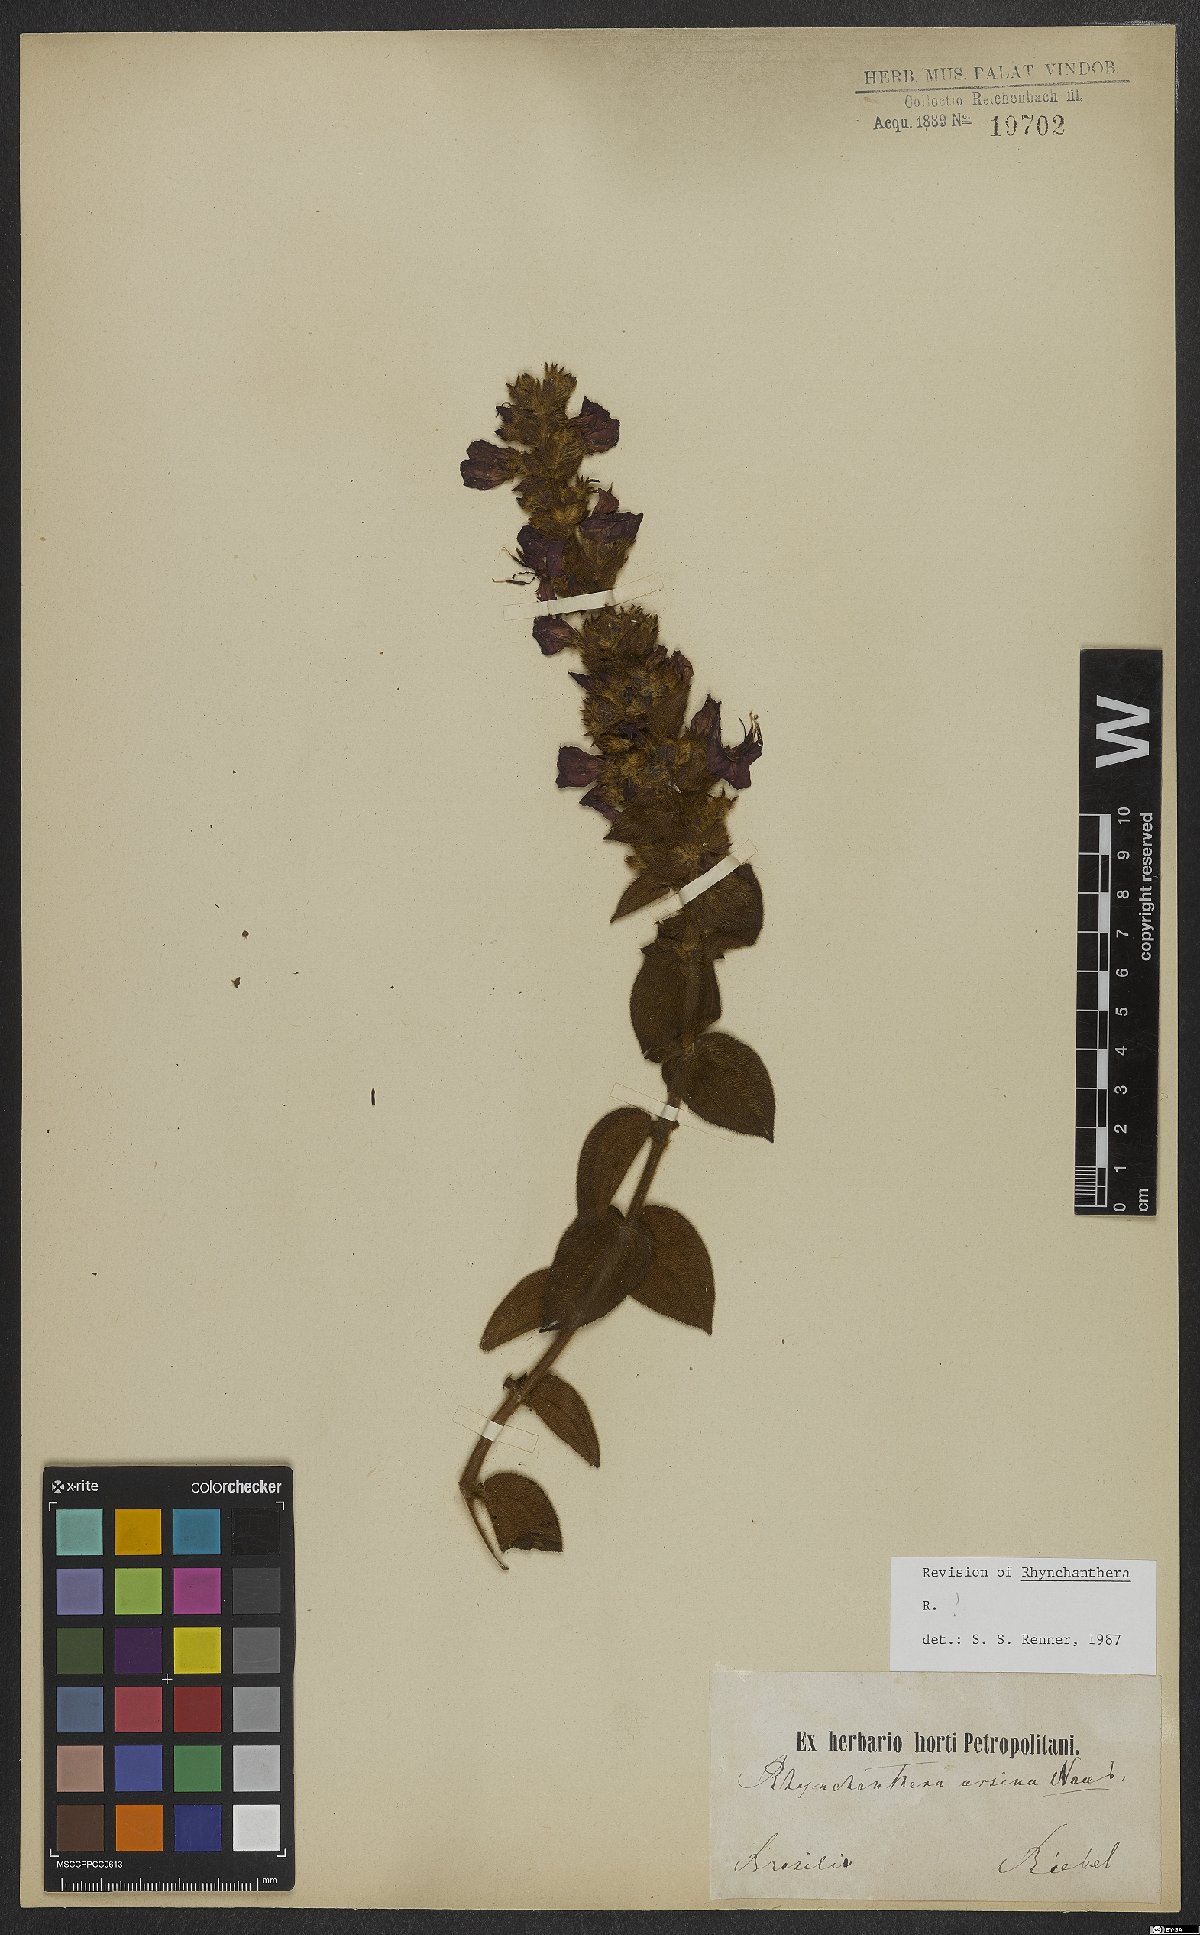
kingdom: Plantae
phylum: Tracheophyta
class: Magnoliopsida
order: Myrtales
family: Melastomataceae
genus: Rhynchanthera
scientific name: Rhynchanthera ursina
